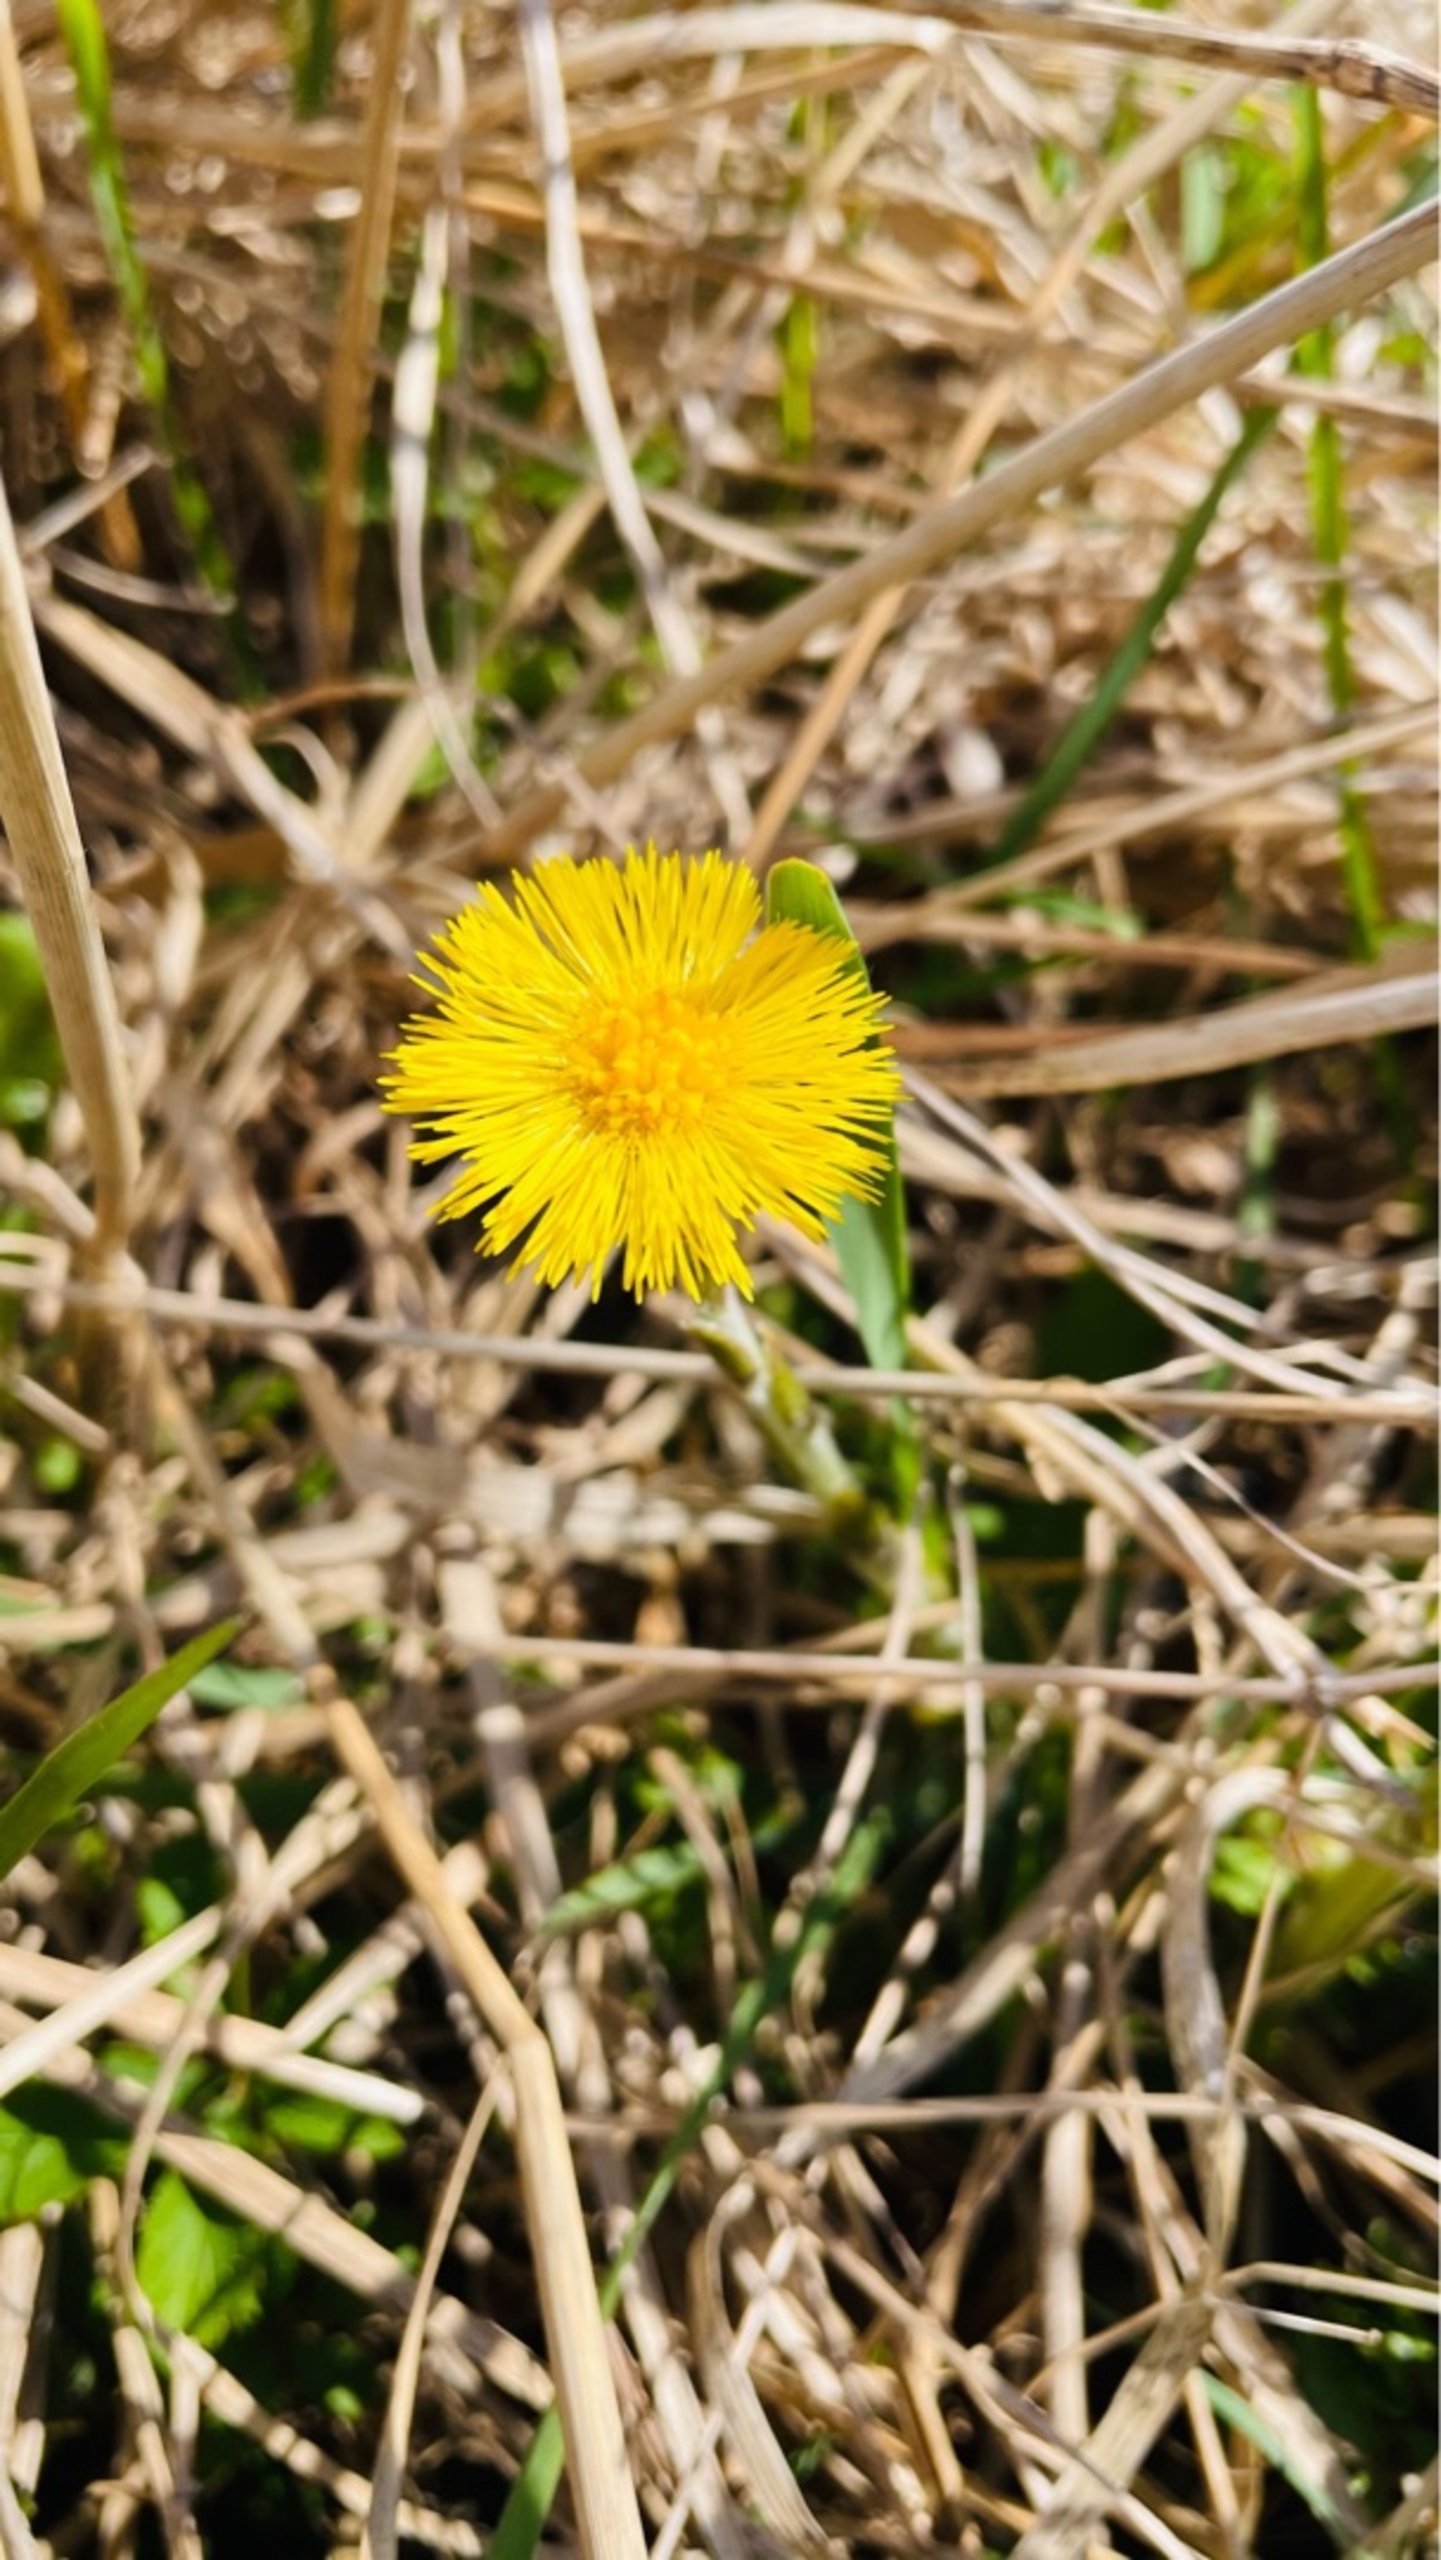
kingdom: Plantae
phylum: Tracheophyta
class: Magnoliopsida
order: Asterales
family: Asteraceae
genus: Tussilago
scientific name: Tussilago farfara
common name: Følfod
